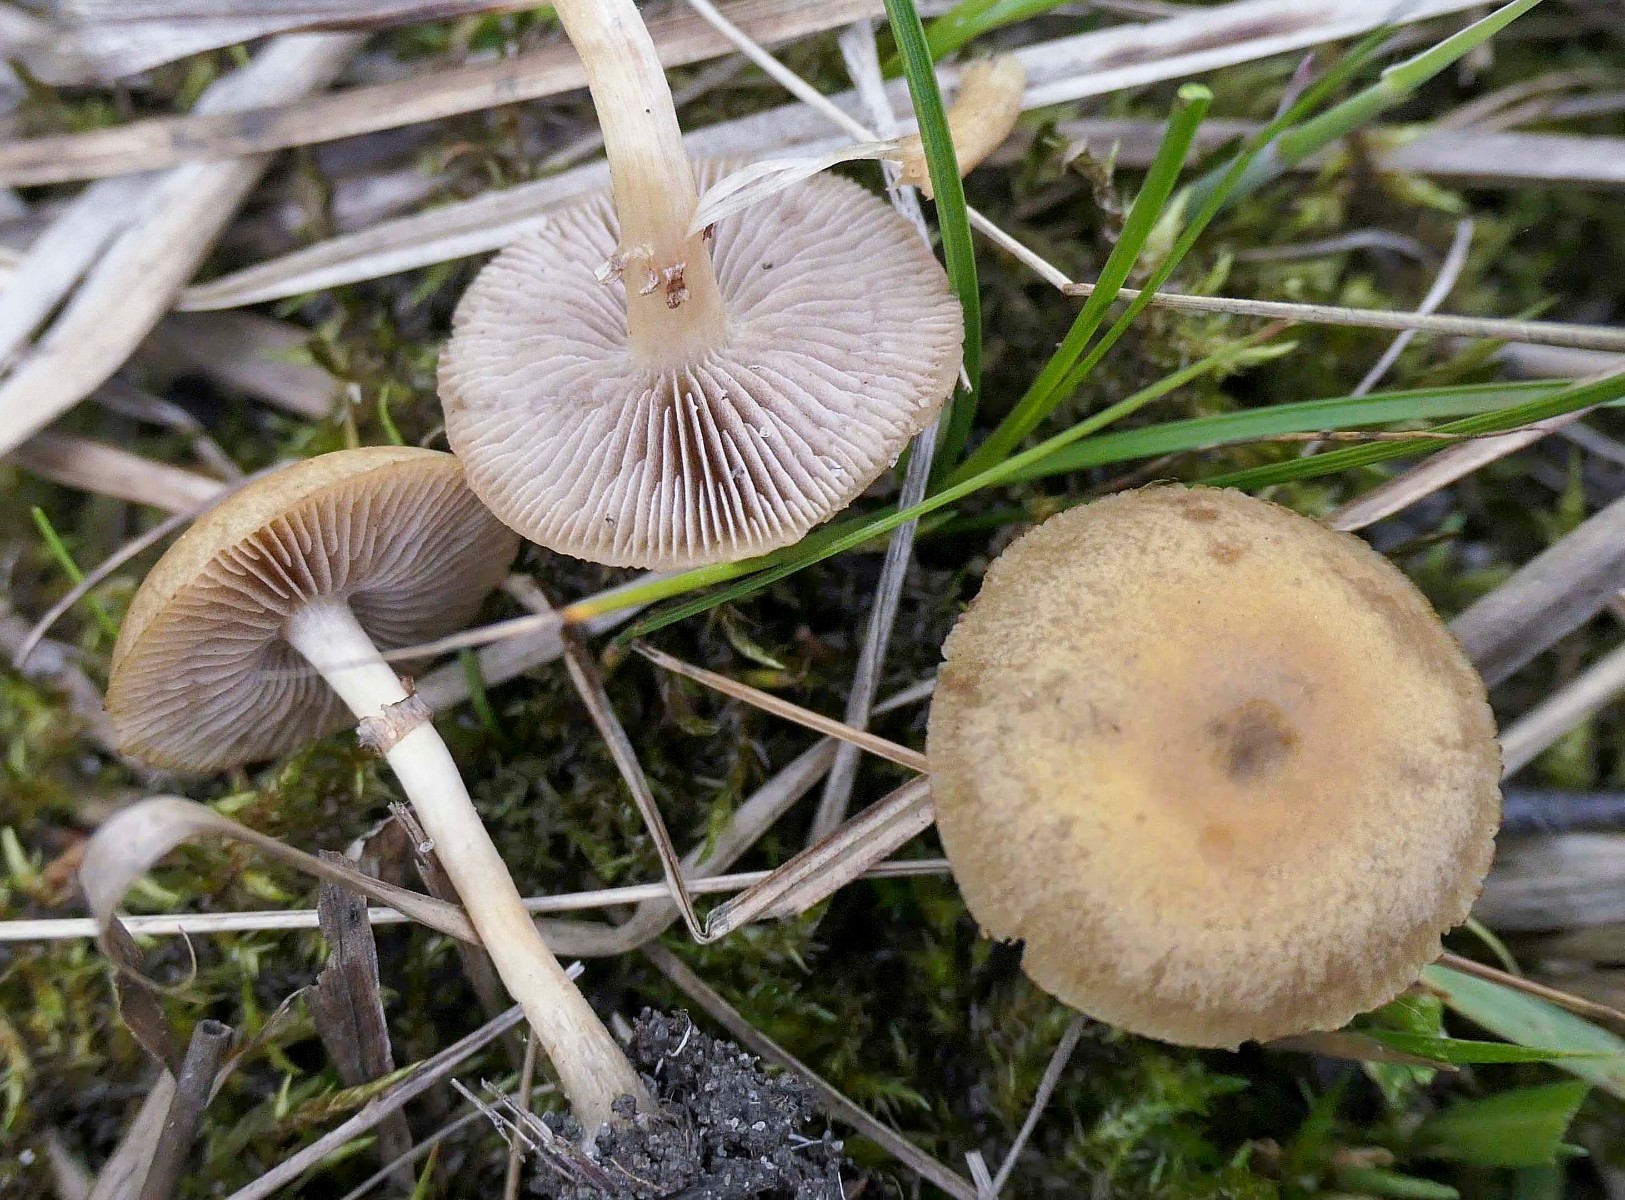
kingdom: Fungi
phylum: Basidiomycota
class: Agaricomycetes
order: Agaricales
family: Strophariaceae
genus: Agrocybe
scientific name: Agrocybe elatella
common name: mose-agerhat
